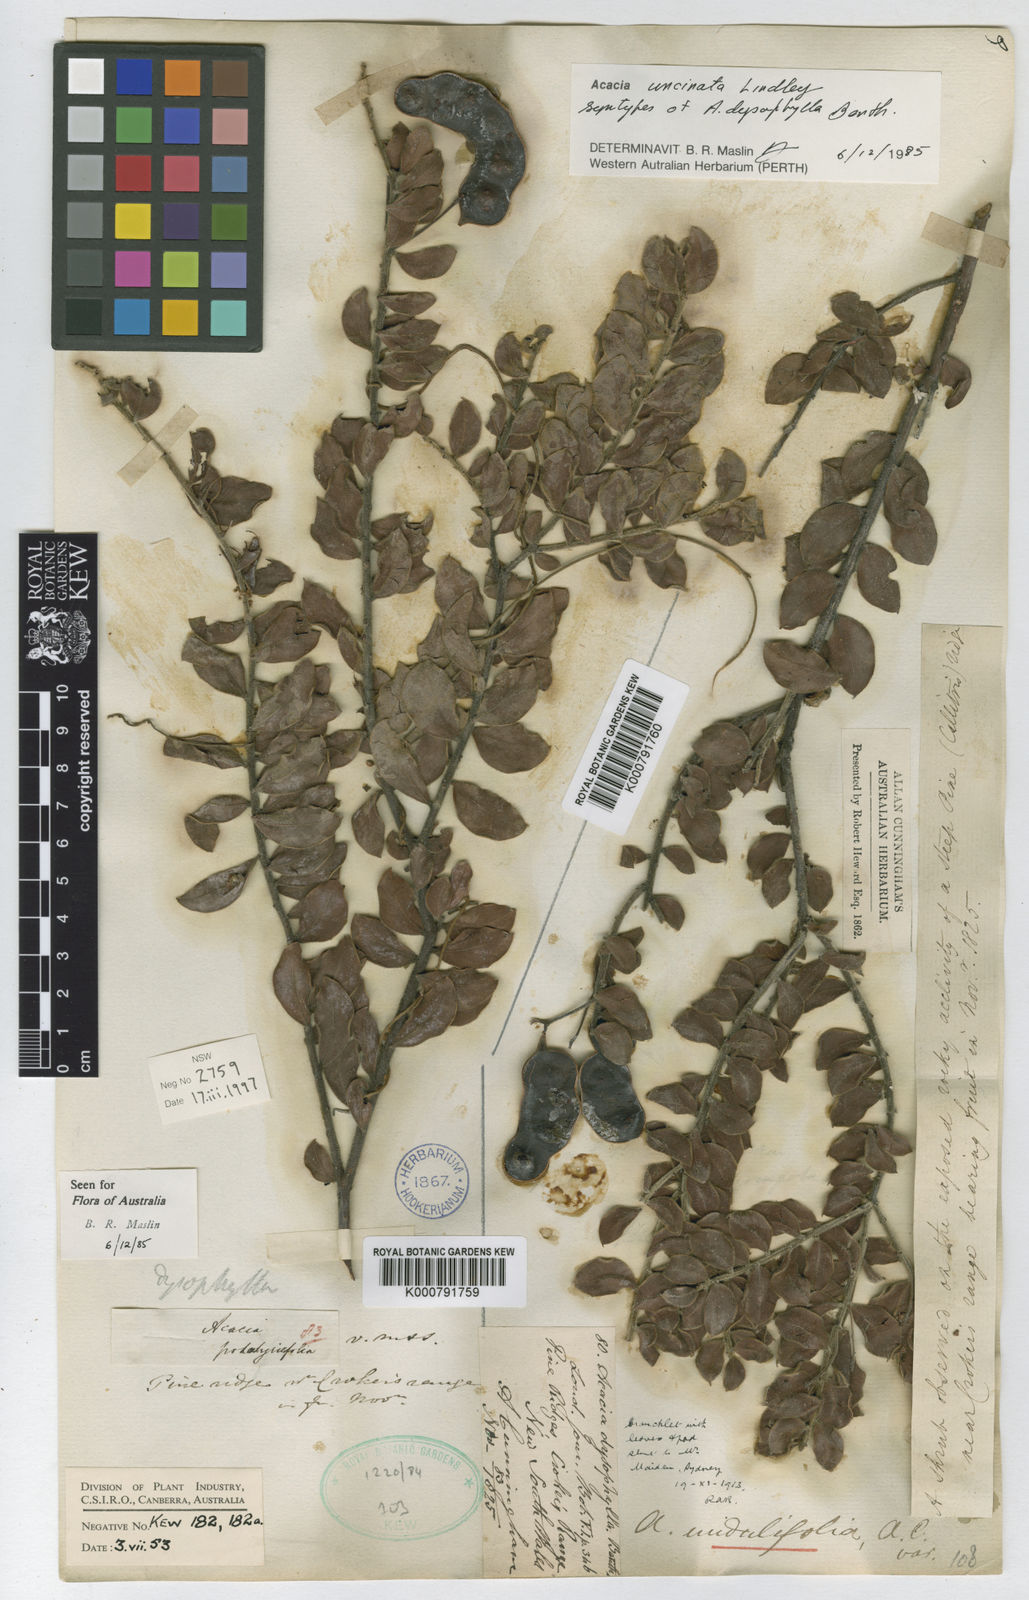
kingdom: Plantae
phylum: Tracheophyta
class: Magnoliopsida
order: Fabales
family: Fabaceae
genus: Acacia
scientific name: Acacia undulifolia
